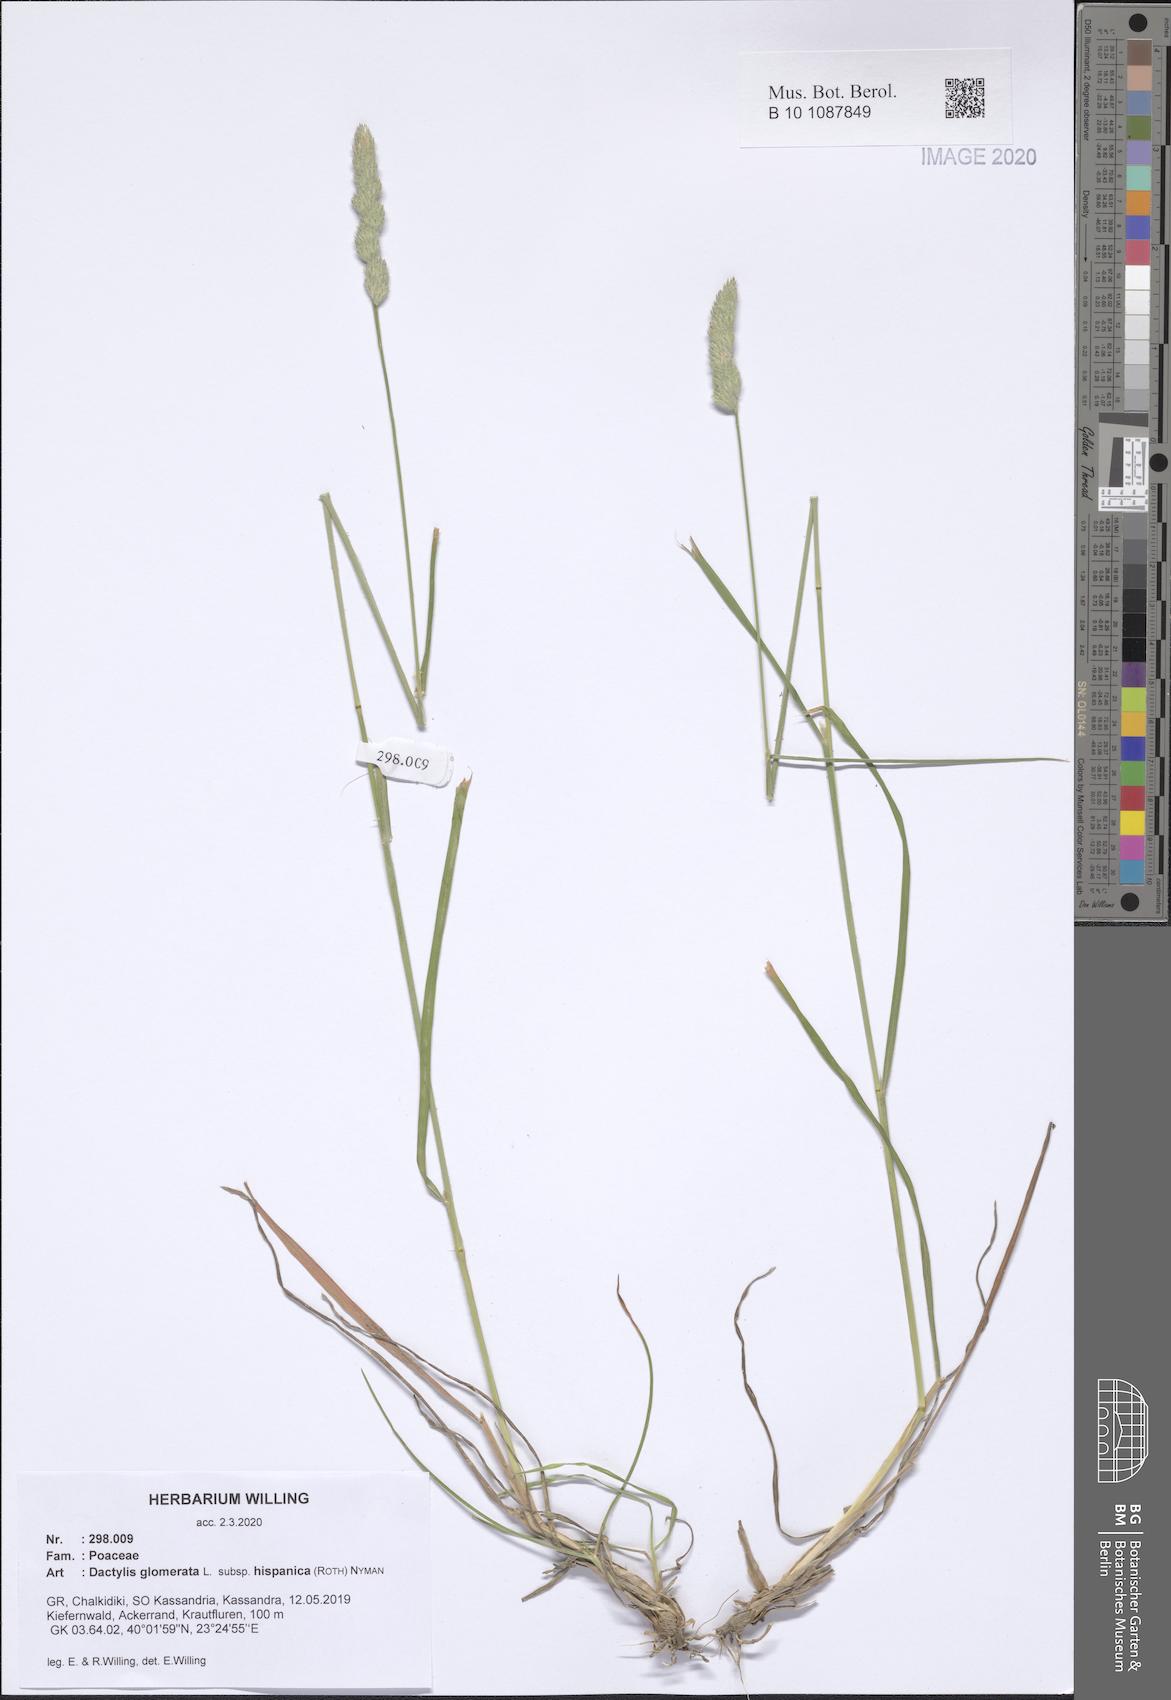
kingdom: Plantae
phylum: Tracheophyta
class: Liliopsida
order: Poales
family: Poaceae
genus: Dactylis
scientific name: Dactylis glomerata
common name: Orchardgrass
